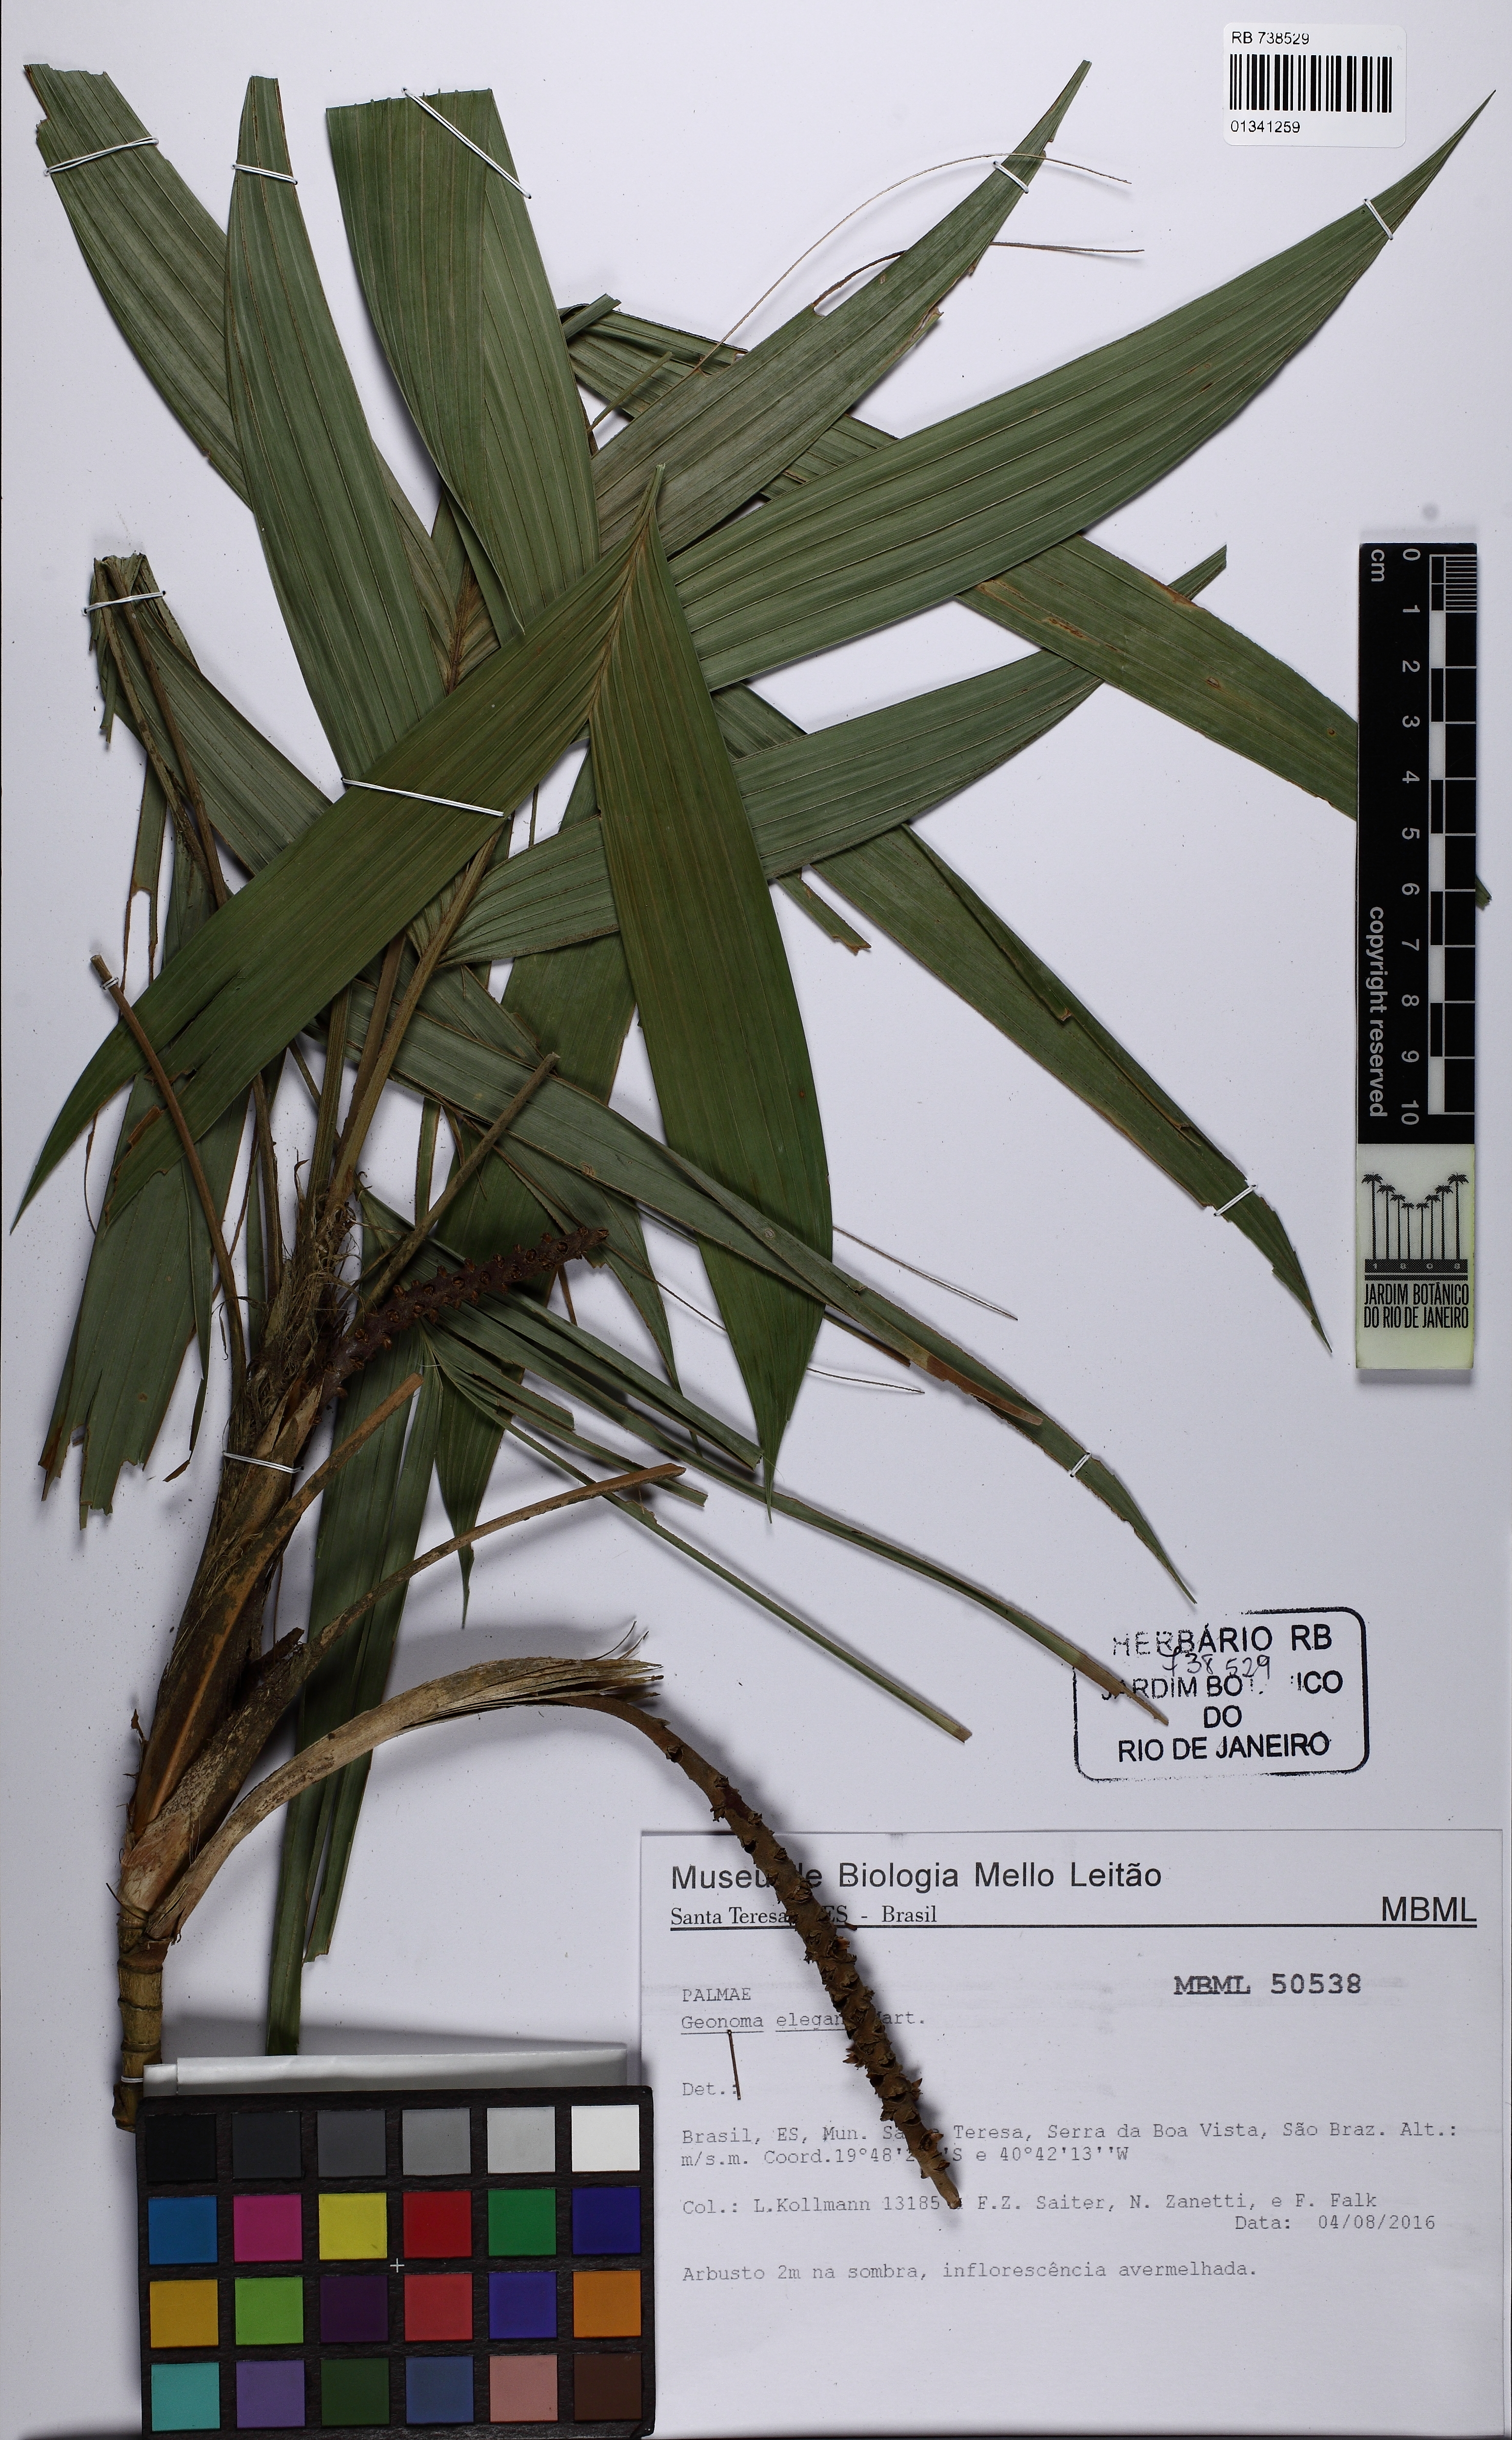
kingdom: Plantae
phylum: Tracheophyta
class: Liliopsida
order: Arecales
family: Arecaceae
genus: Geonoma
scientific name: Geonoma elegans
